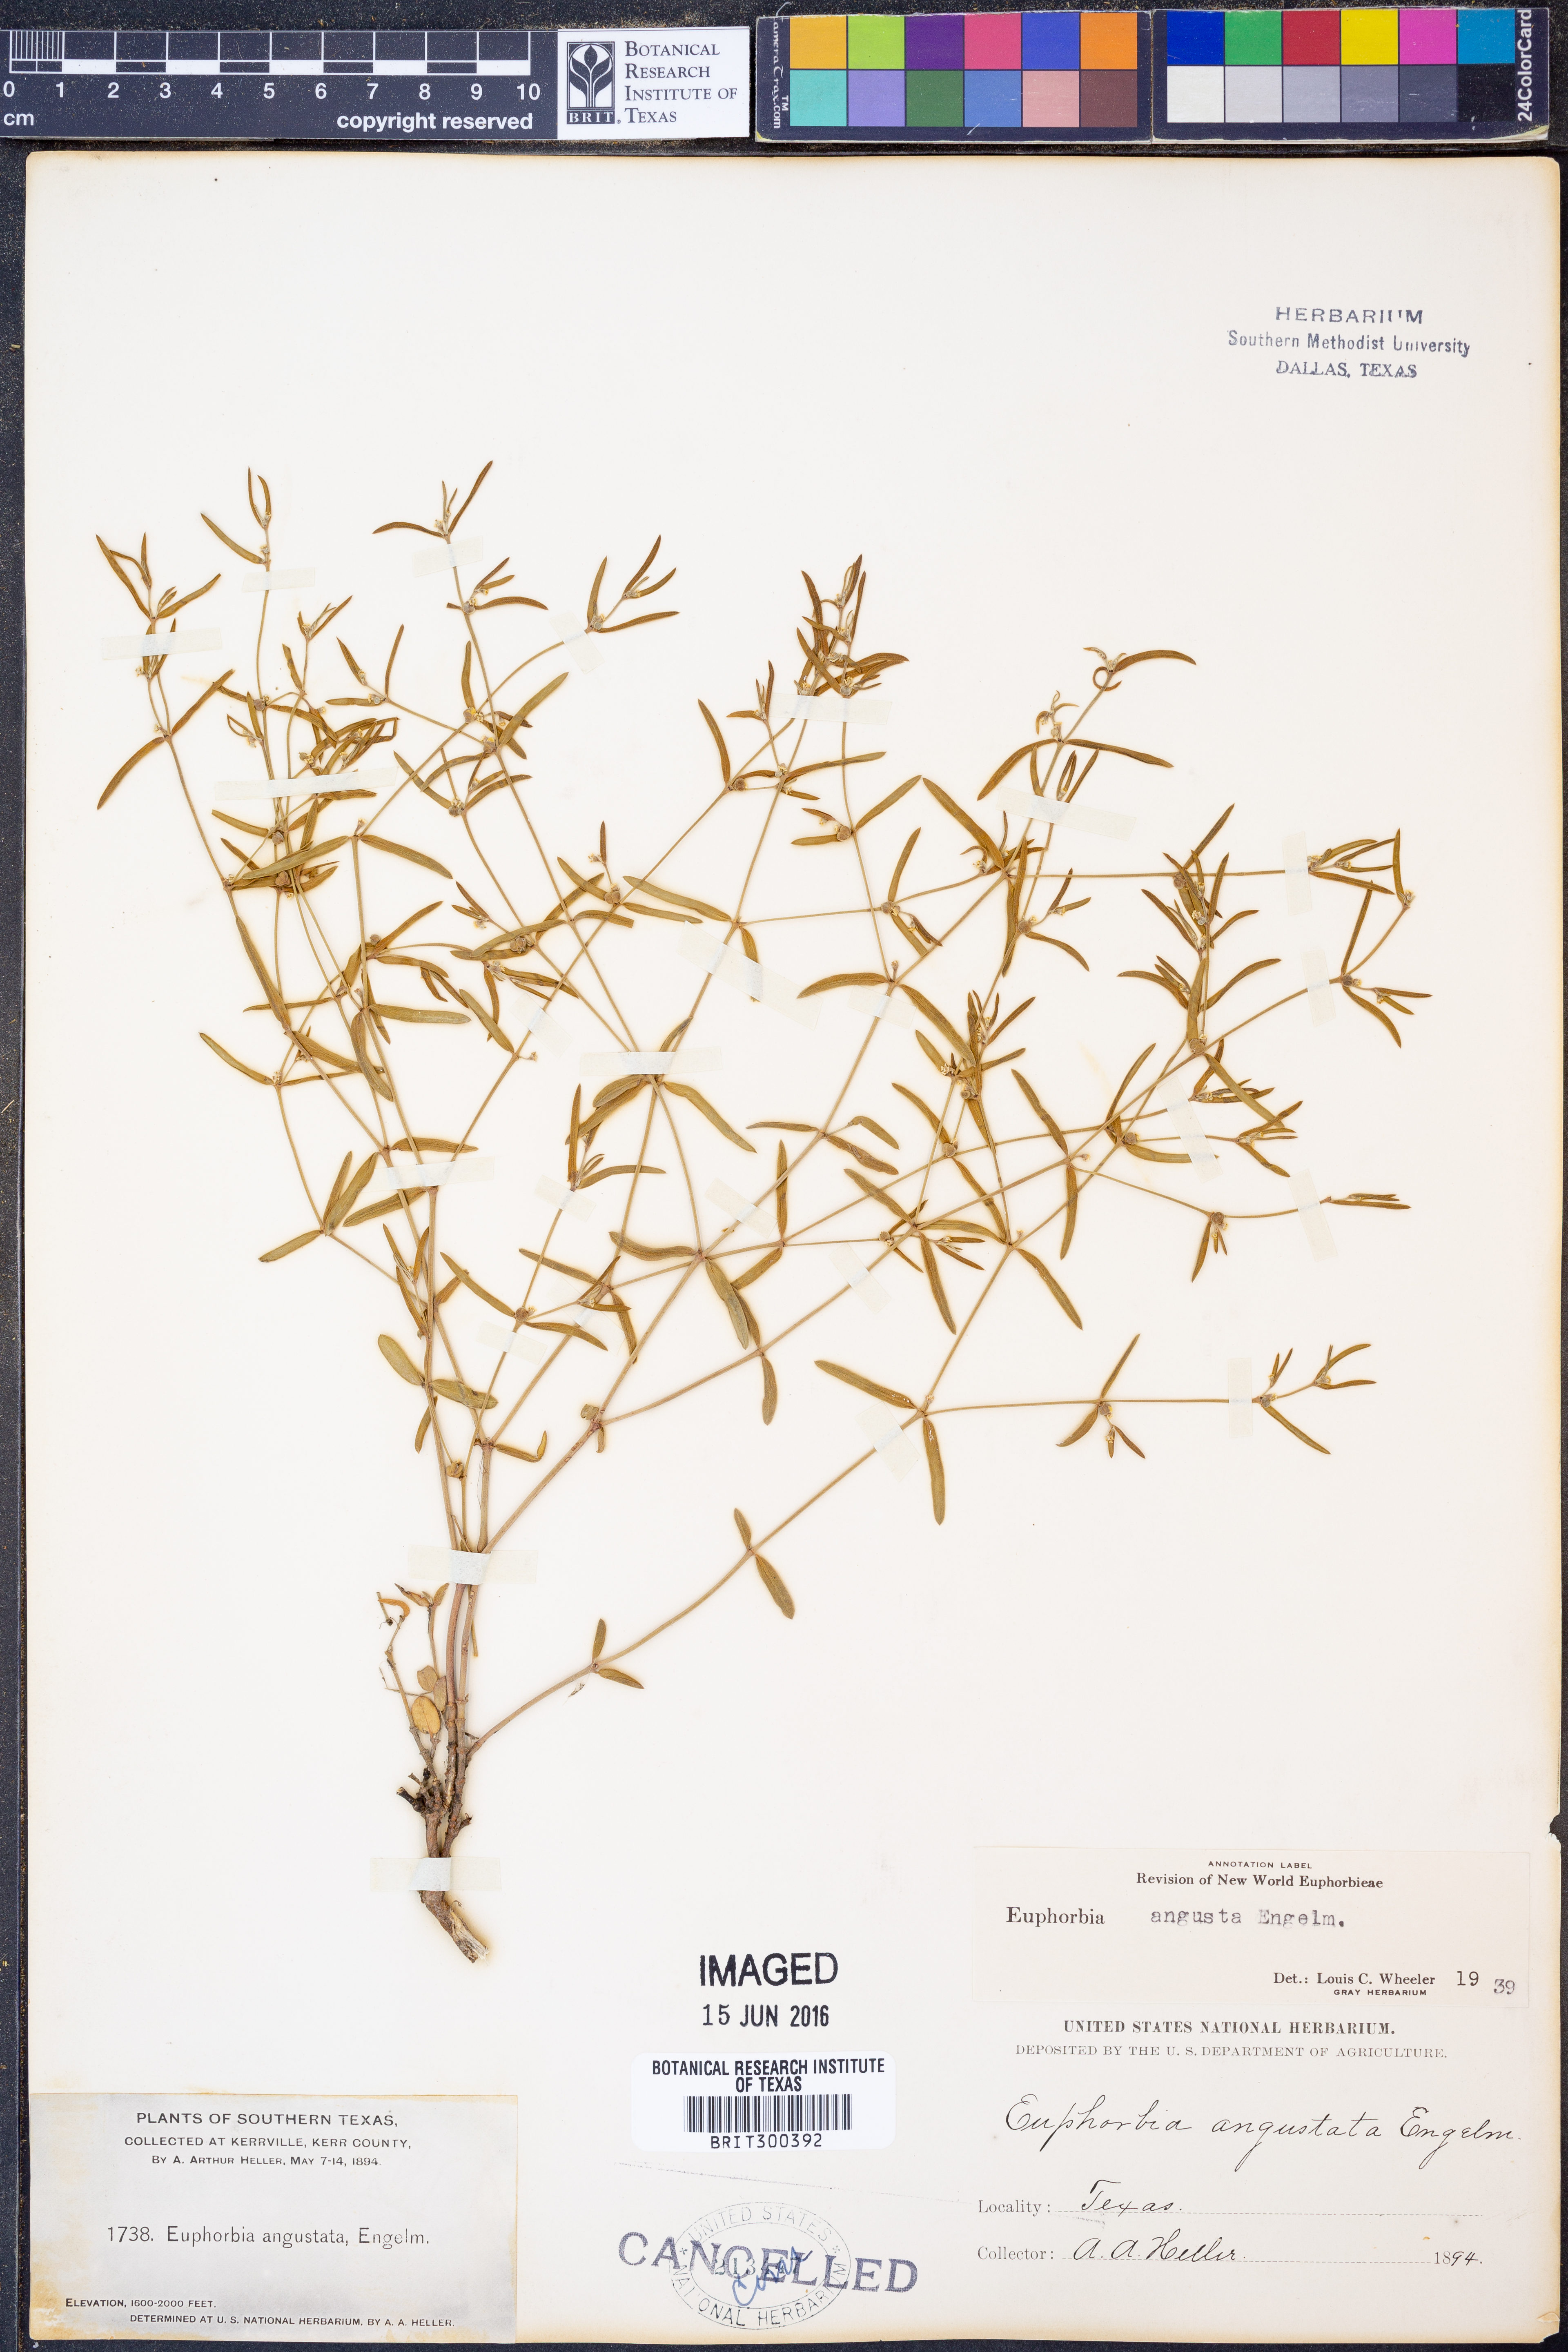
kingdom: Plantae
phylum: Tracheophyta
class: Magnoliopsida
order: Malpighiales
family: Euphorbiaceae
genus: Euphorbia
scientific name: Euphorbia angusta
